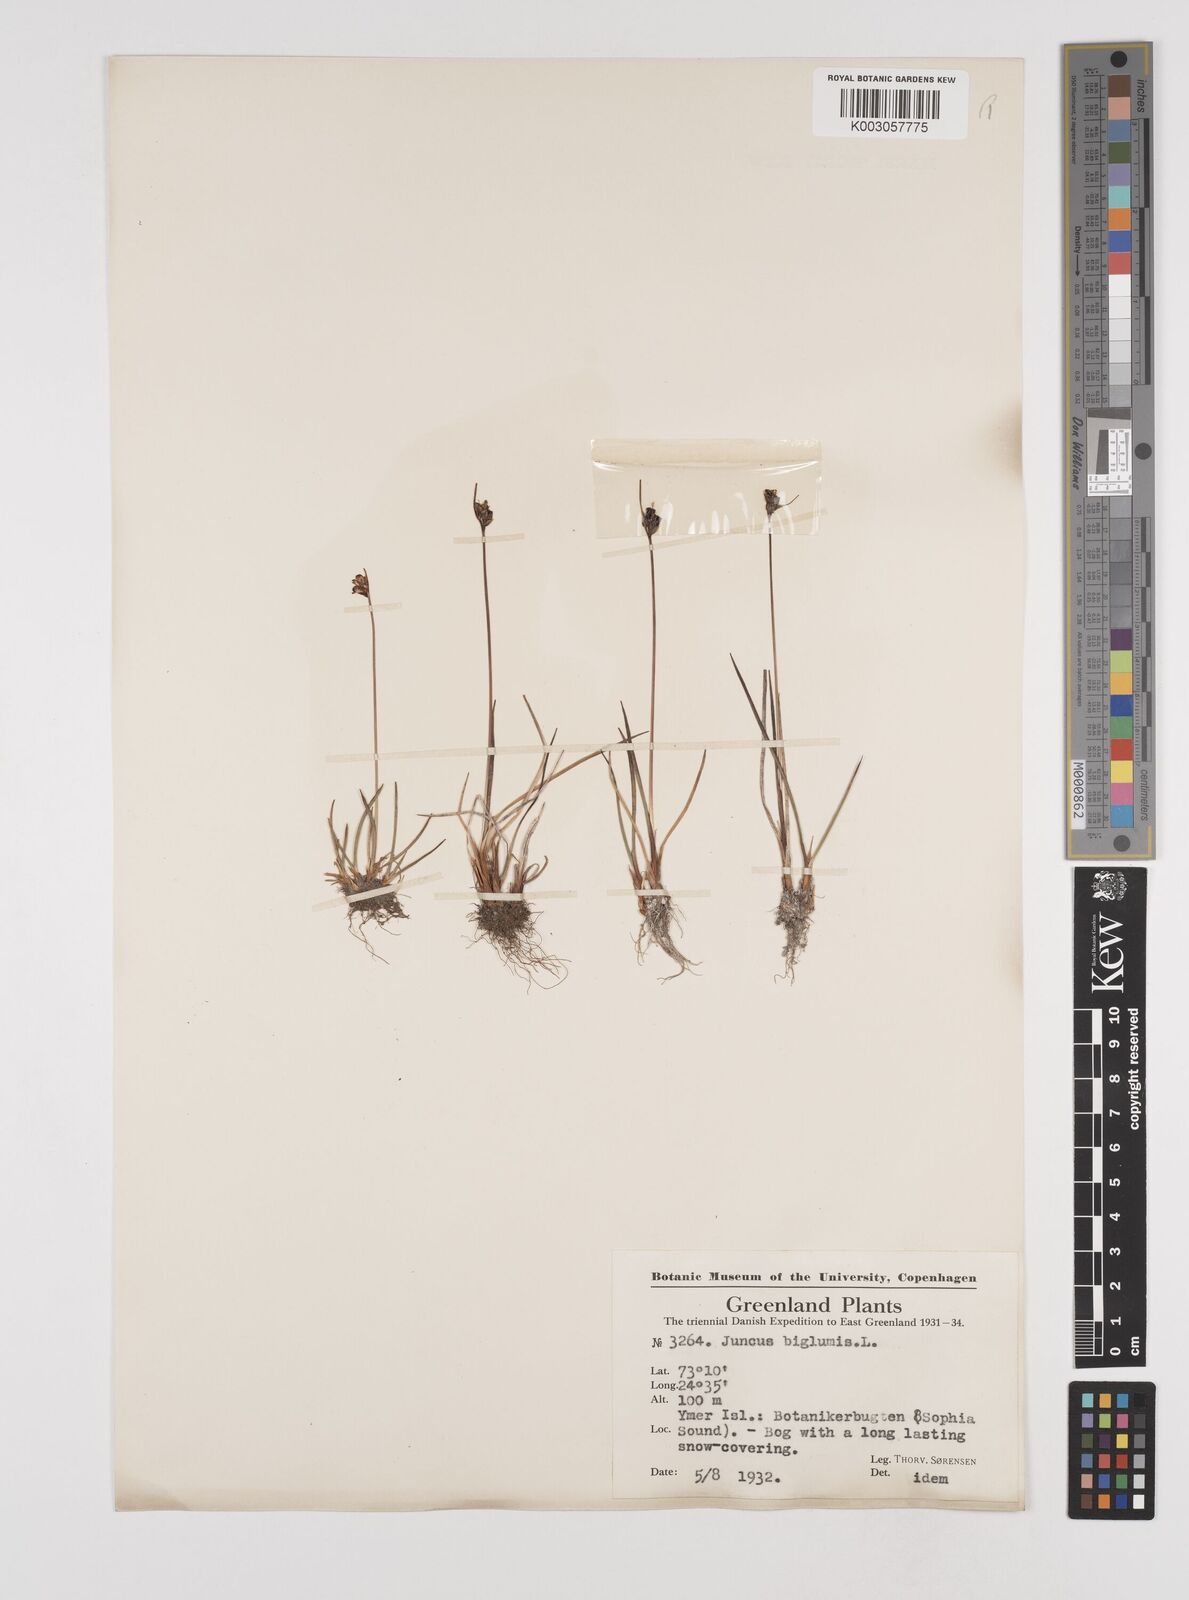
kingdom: Plantae
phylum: Tracheophyta
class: Liliopsida
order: Poales
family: Juncaceae
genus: Juncus
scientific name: Juncus biglumis
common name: Two-flowered rush
